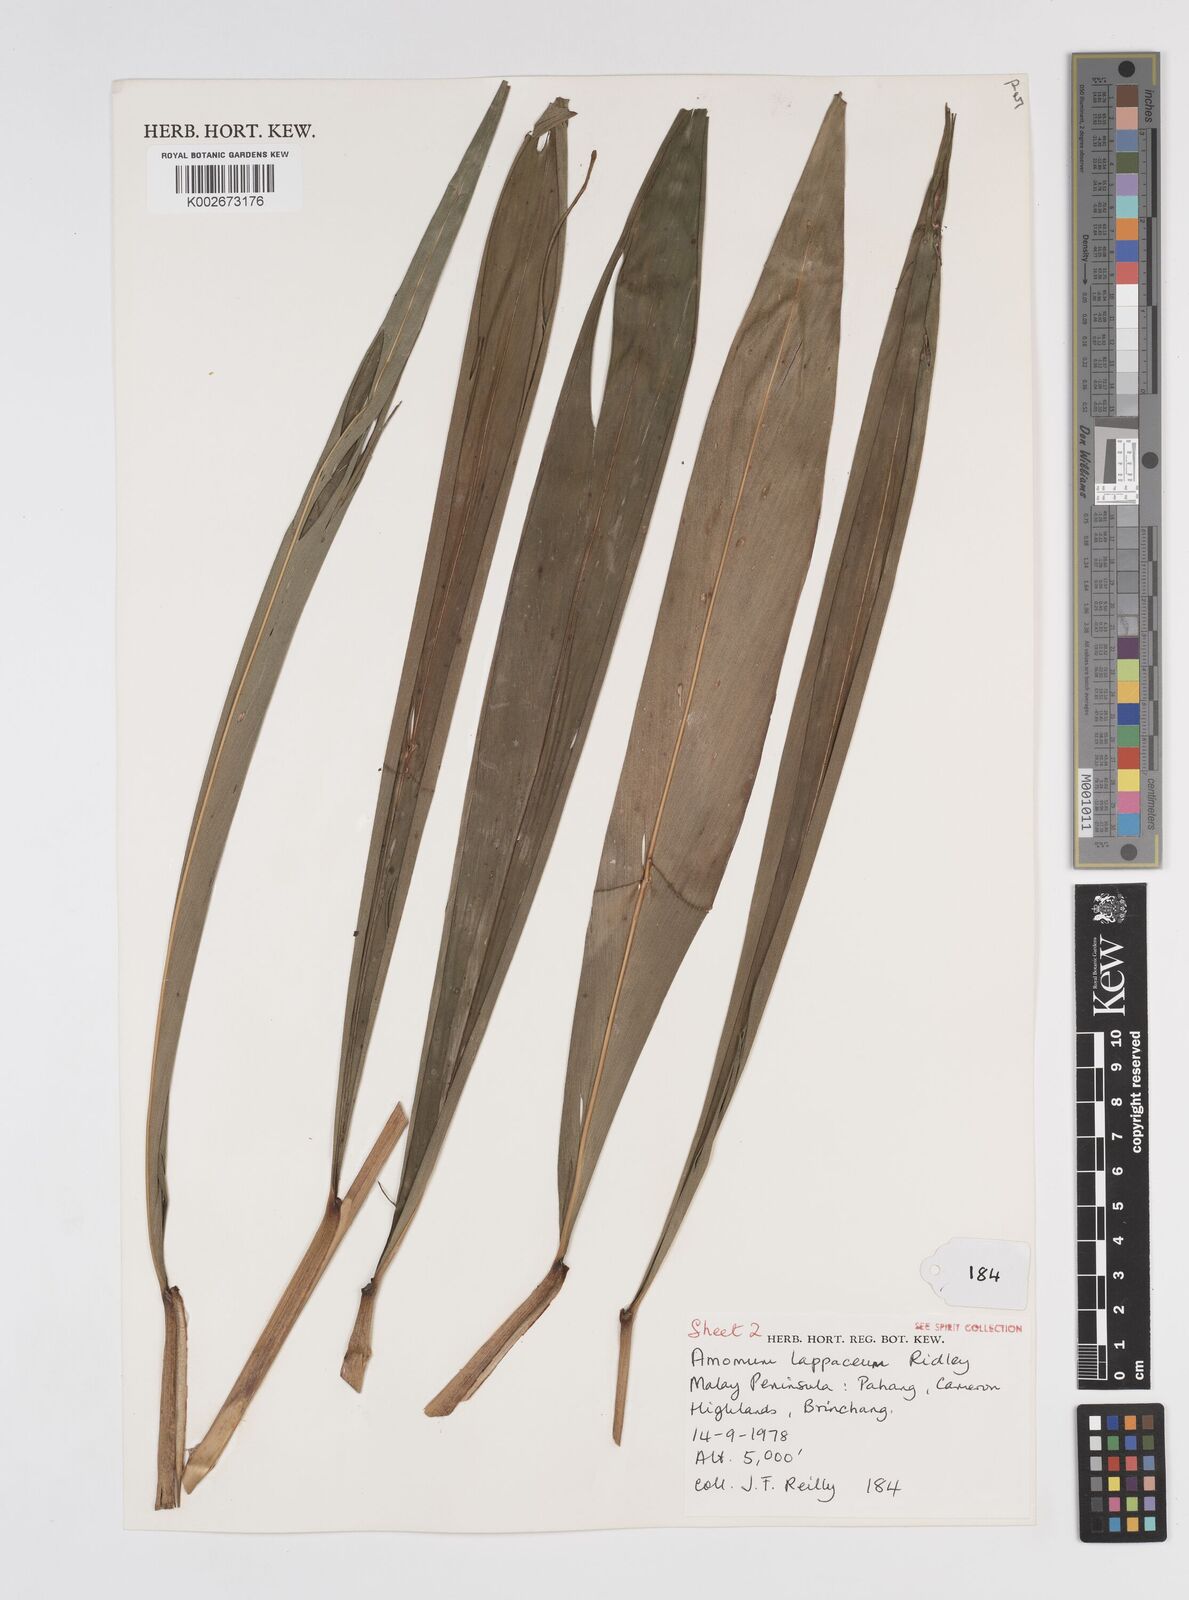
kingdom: Plantae
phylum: Tracheophyta
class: Liliopsida
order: Zingiberales
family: Zingiberaceae
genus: Meistera
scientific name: Meistera lappacea
